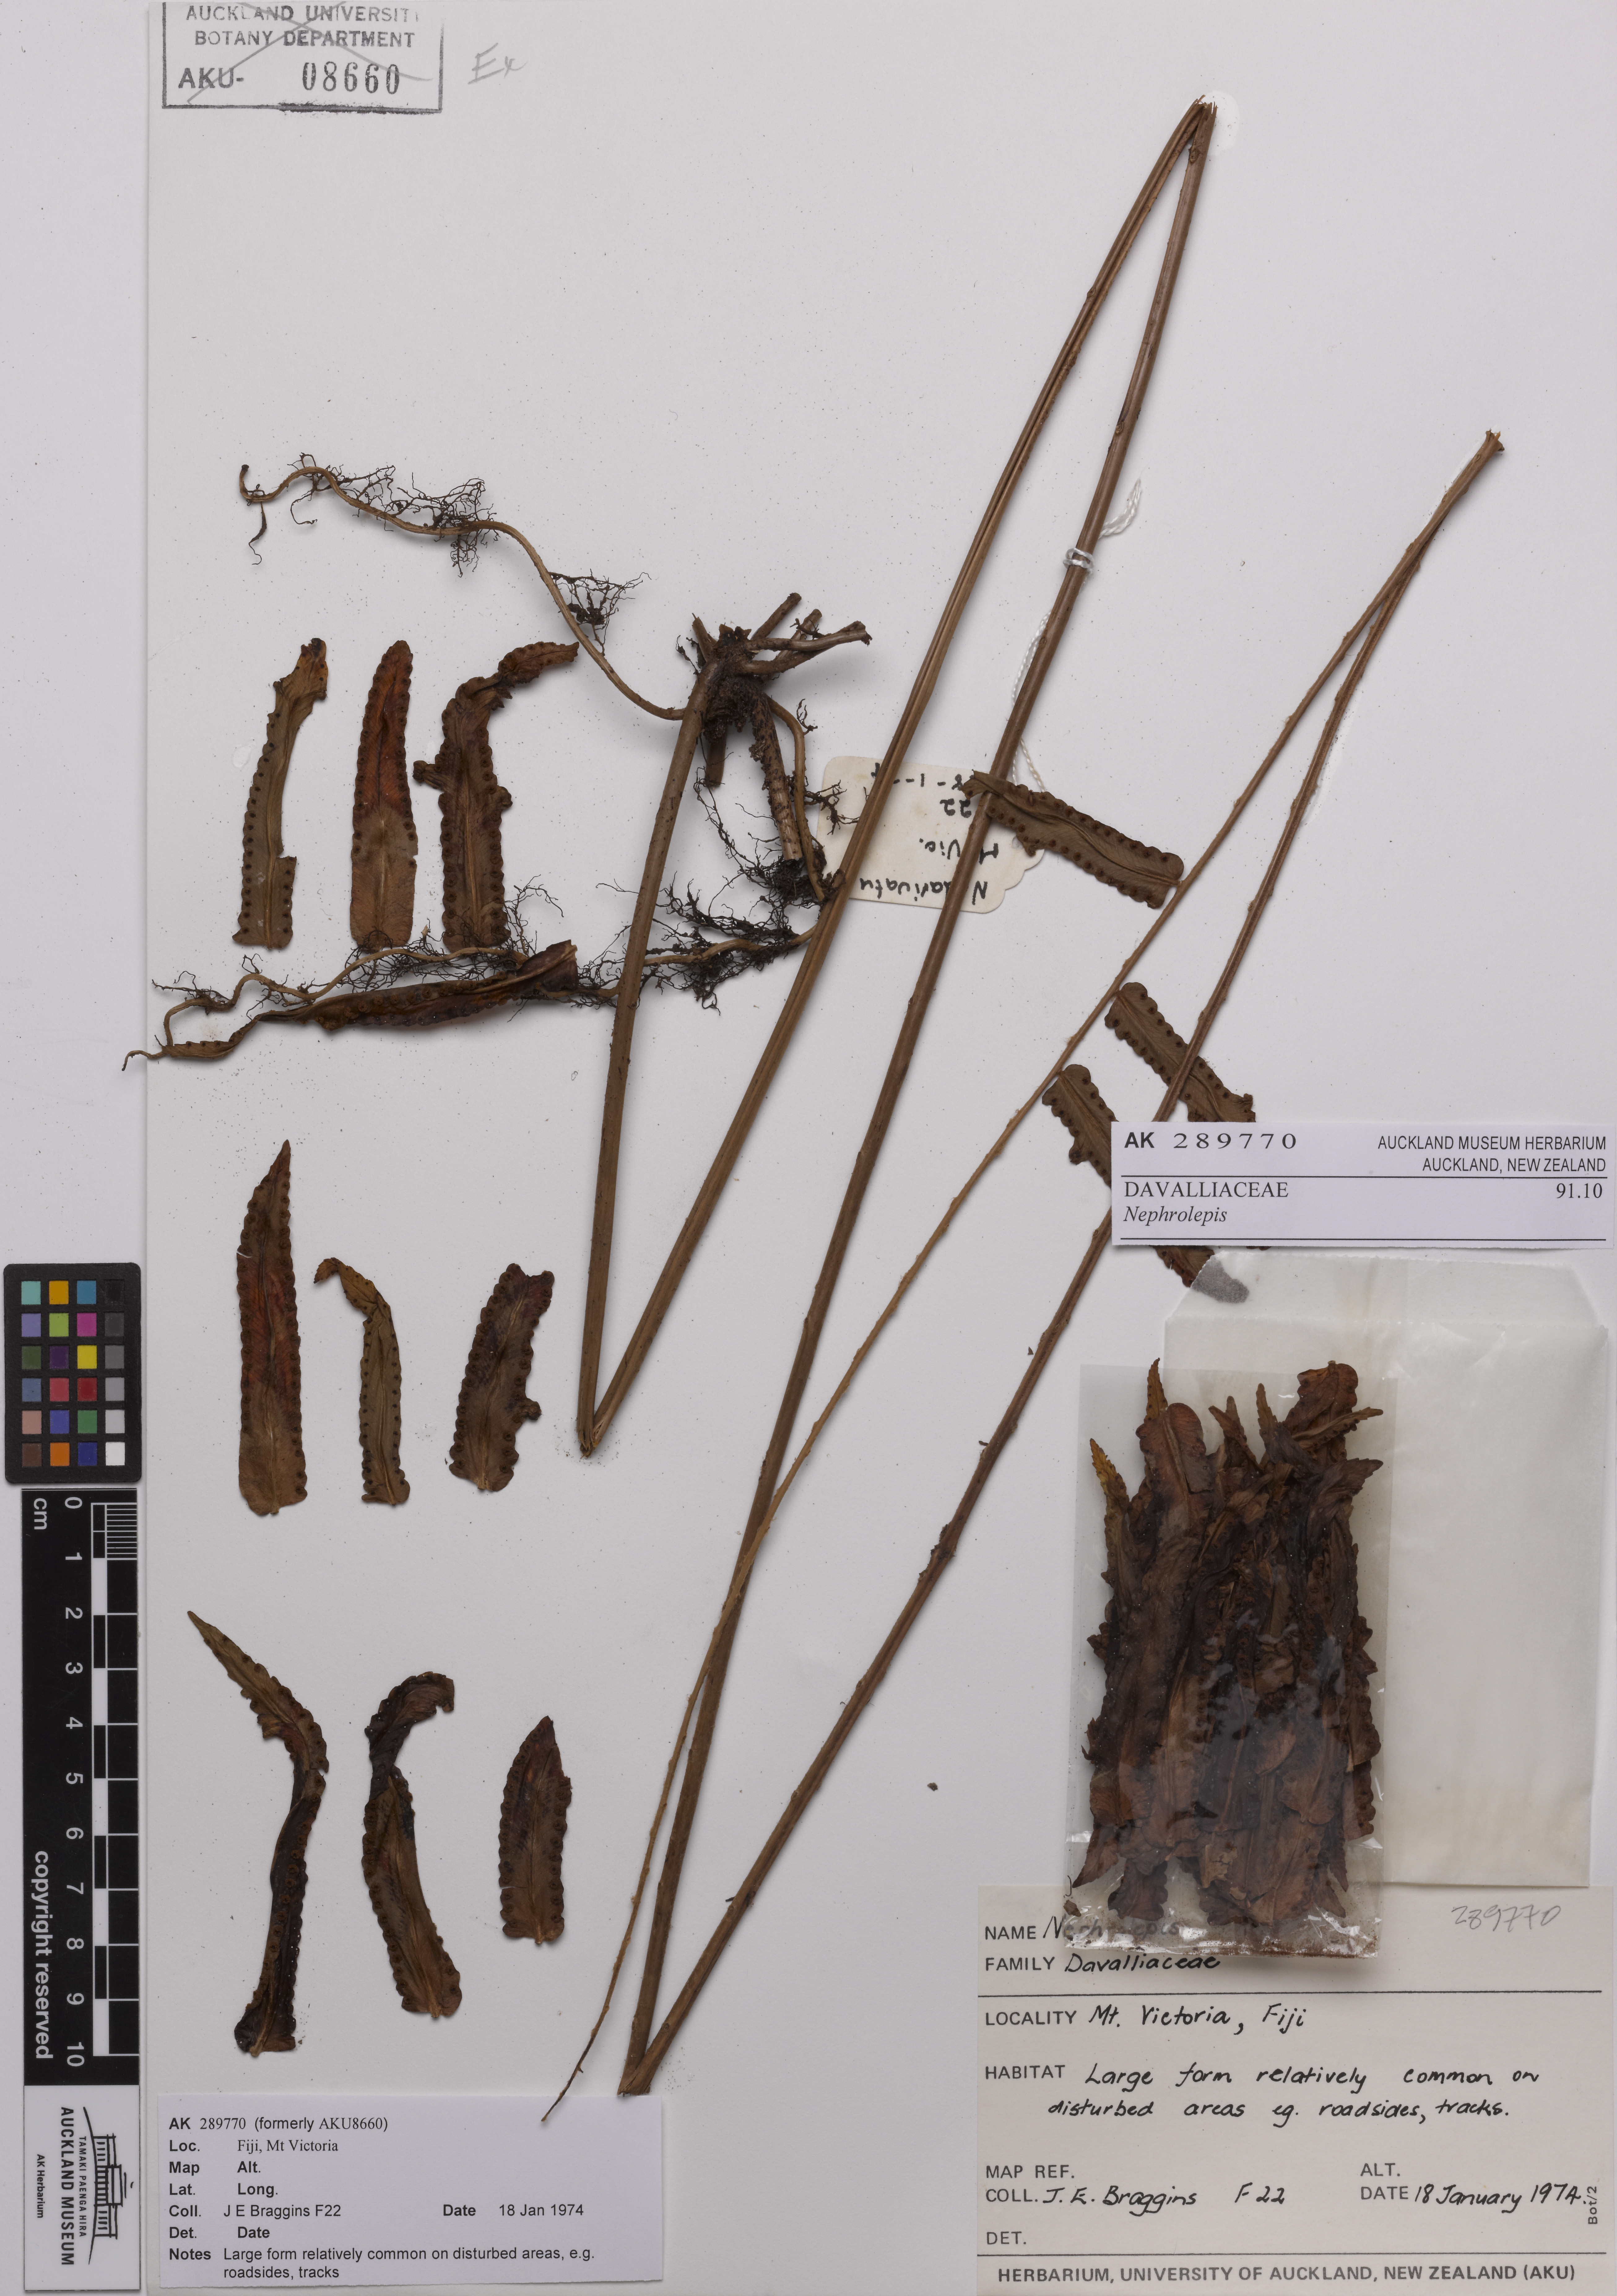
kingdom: Plantae
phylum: Tracheophyta
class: Polypodiopsida
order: Polypodiales
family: Nephrolepidaceae
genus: Nephrolepis
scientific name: Nephrolepis
